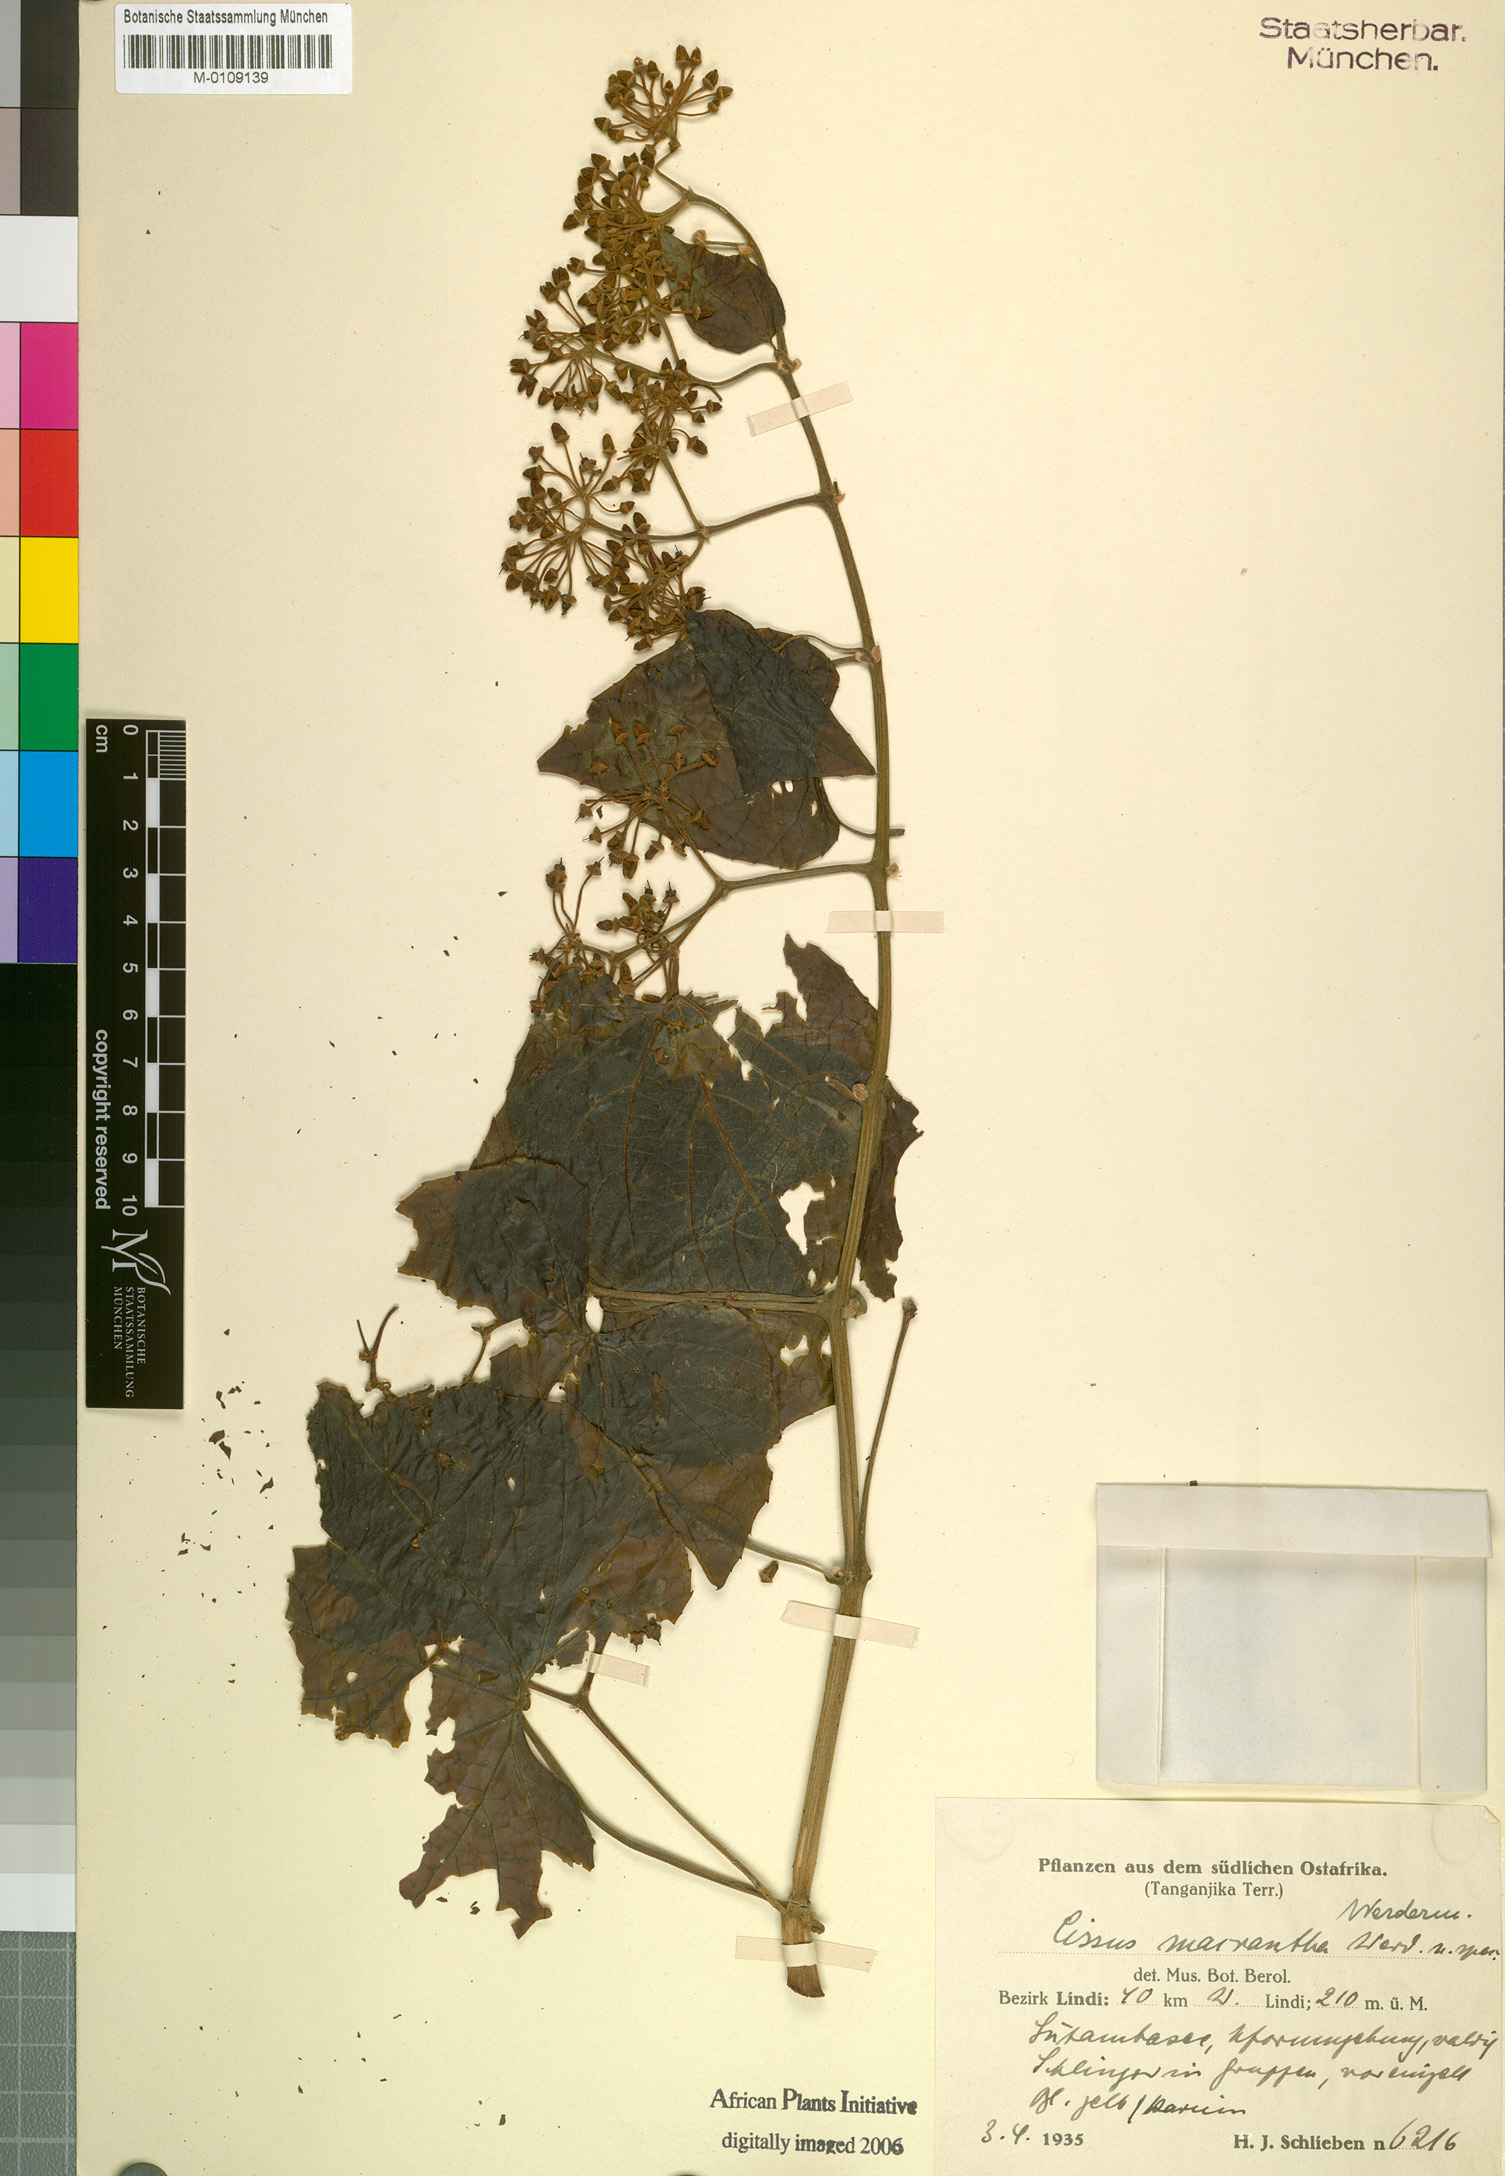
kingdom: Plantae
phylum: Tracheophyta
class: Magnoliopsida
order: Vitales
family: Vitaceae
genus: Cissus
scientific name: Cissus cucumerifolia
